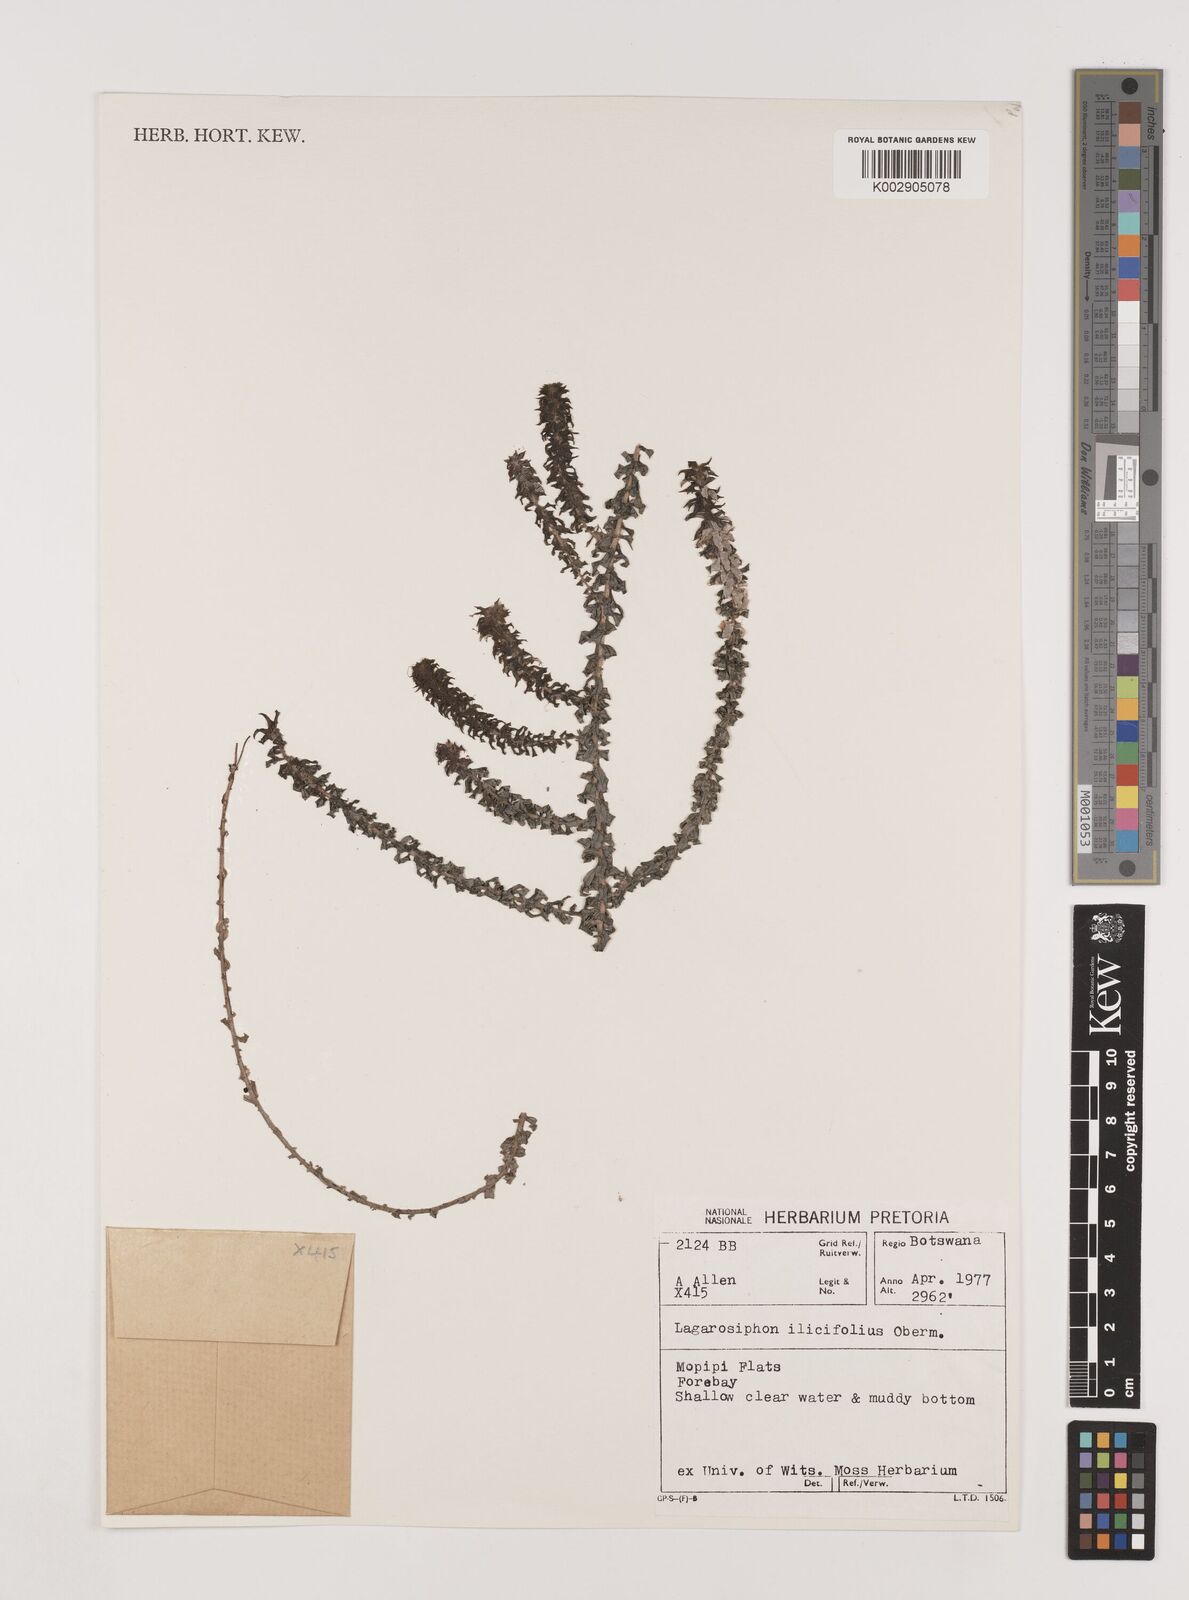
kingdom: Plantae
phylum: Tracheophyta
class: Liliopsida
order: Alismatales
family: Hydrocharitaceae
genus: Lagarosiphon
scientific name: Lagarosiphon ilicifolius
